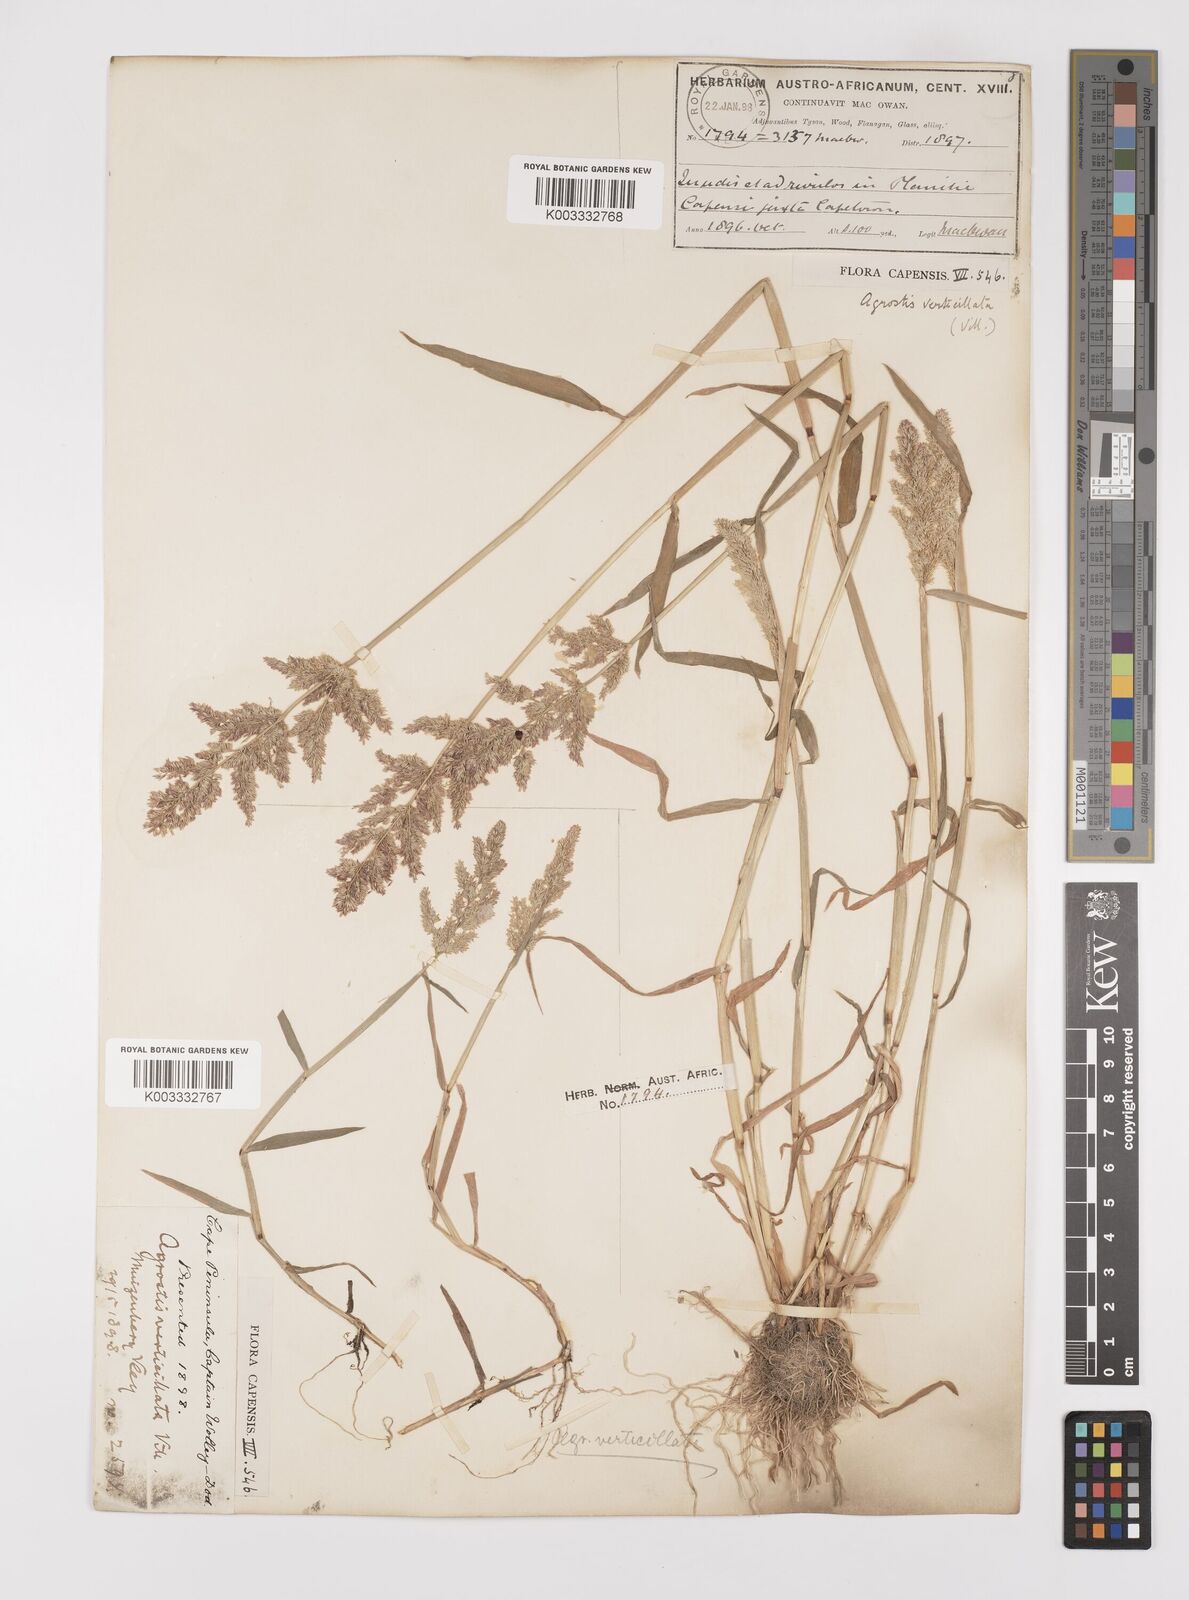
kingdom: Plantae
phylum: Tracheophyta
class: Liliopsida
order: Poales
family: Poaceae
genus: Polypogon
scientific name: Polypogon viridis
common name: Water bent
